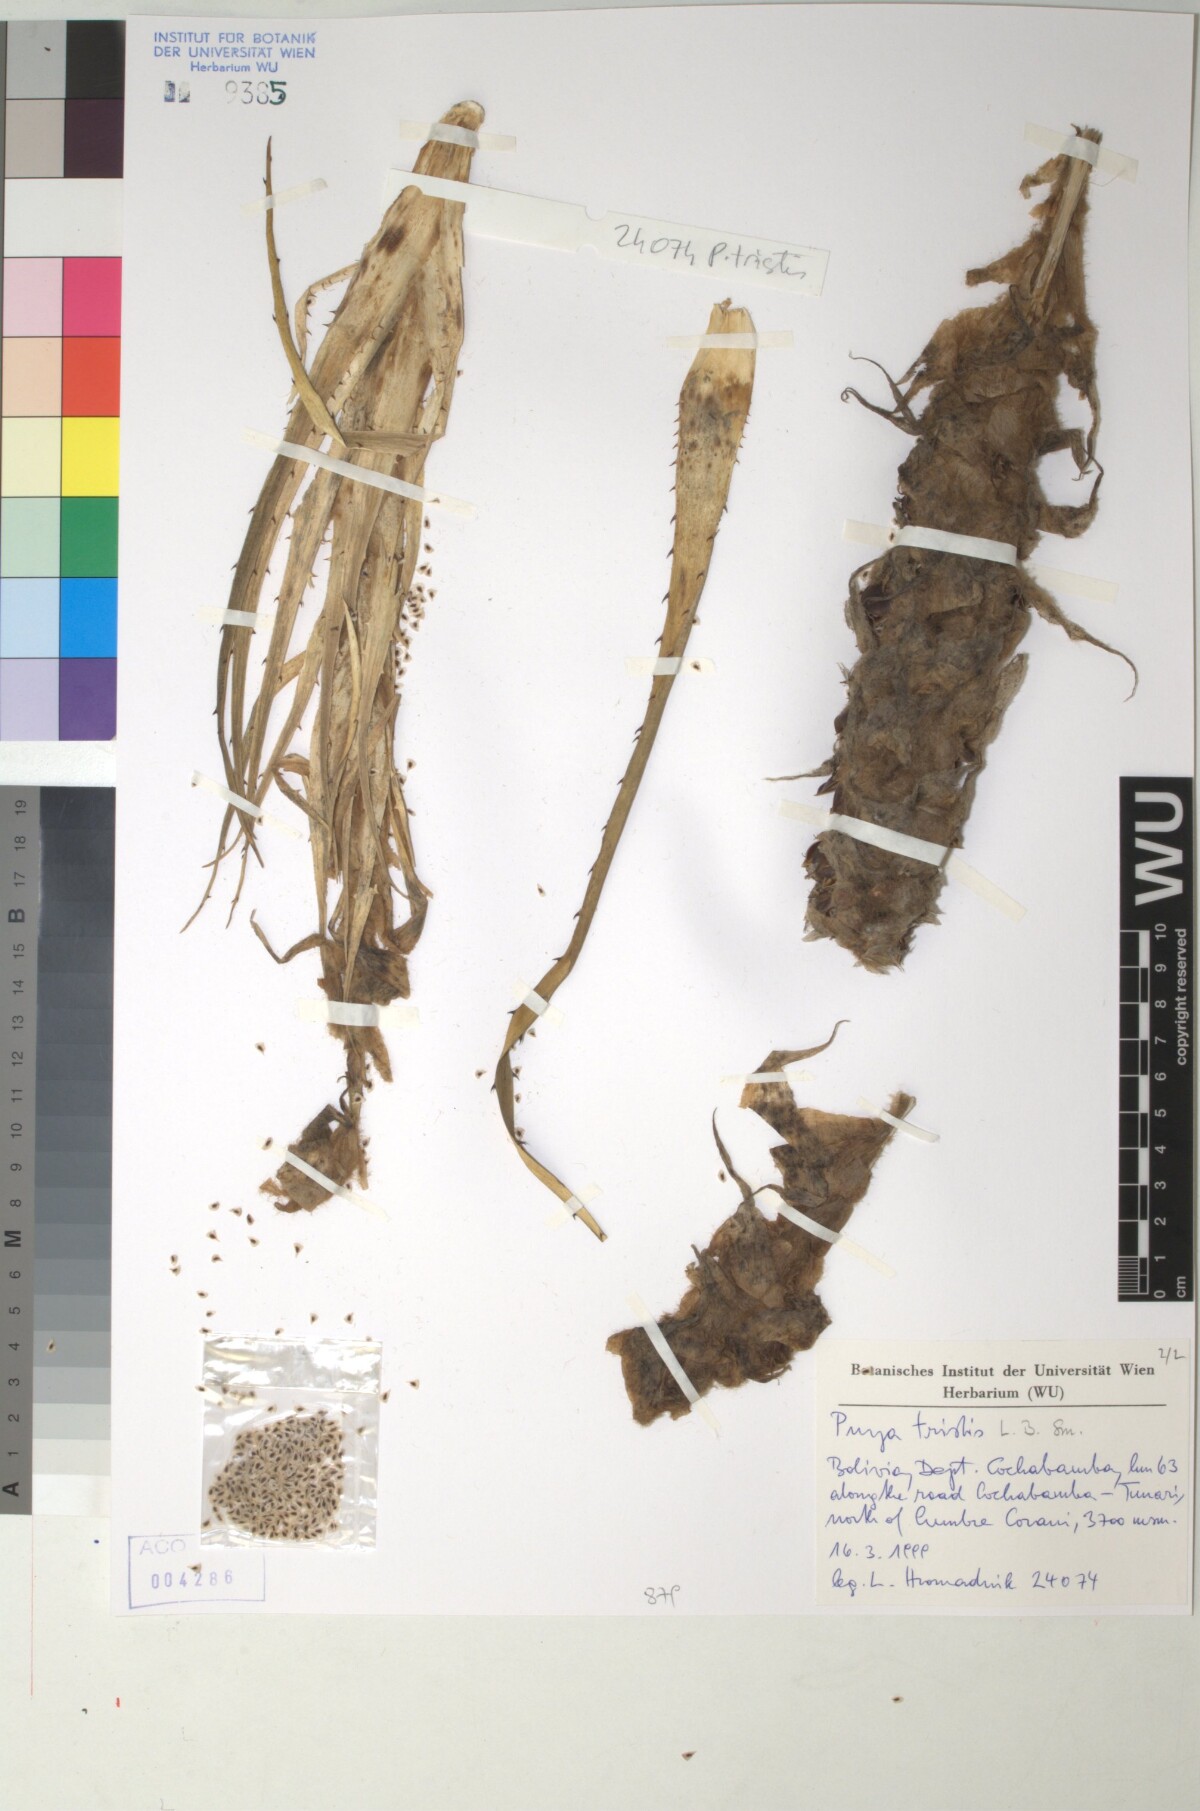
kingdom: Plantae
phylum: Tracheophyta
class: Liliopsida
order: Poales
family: Bromeliaceae
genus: Puya
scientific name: Puya tristis
